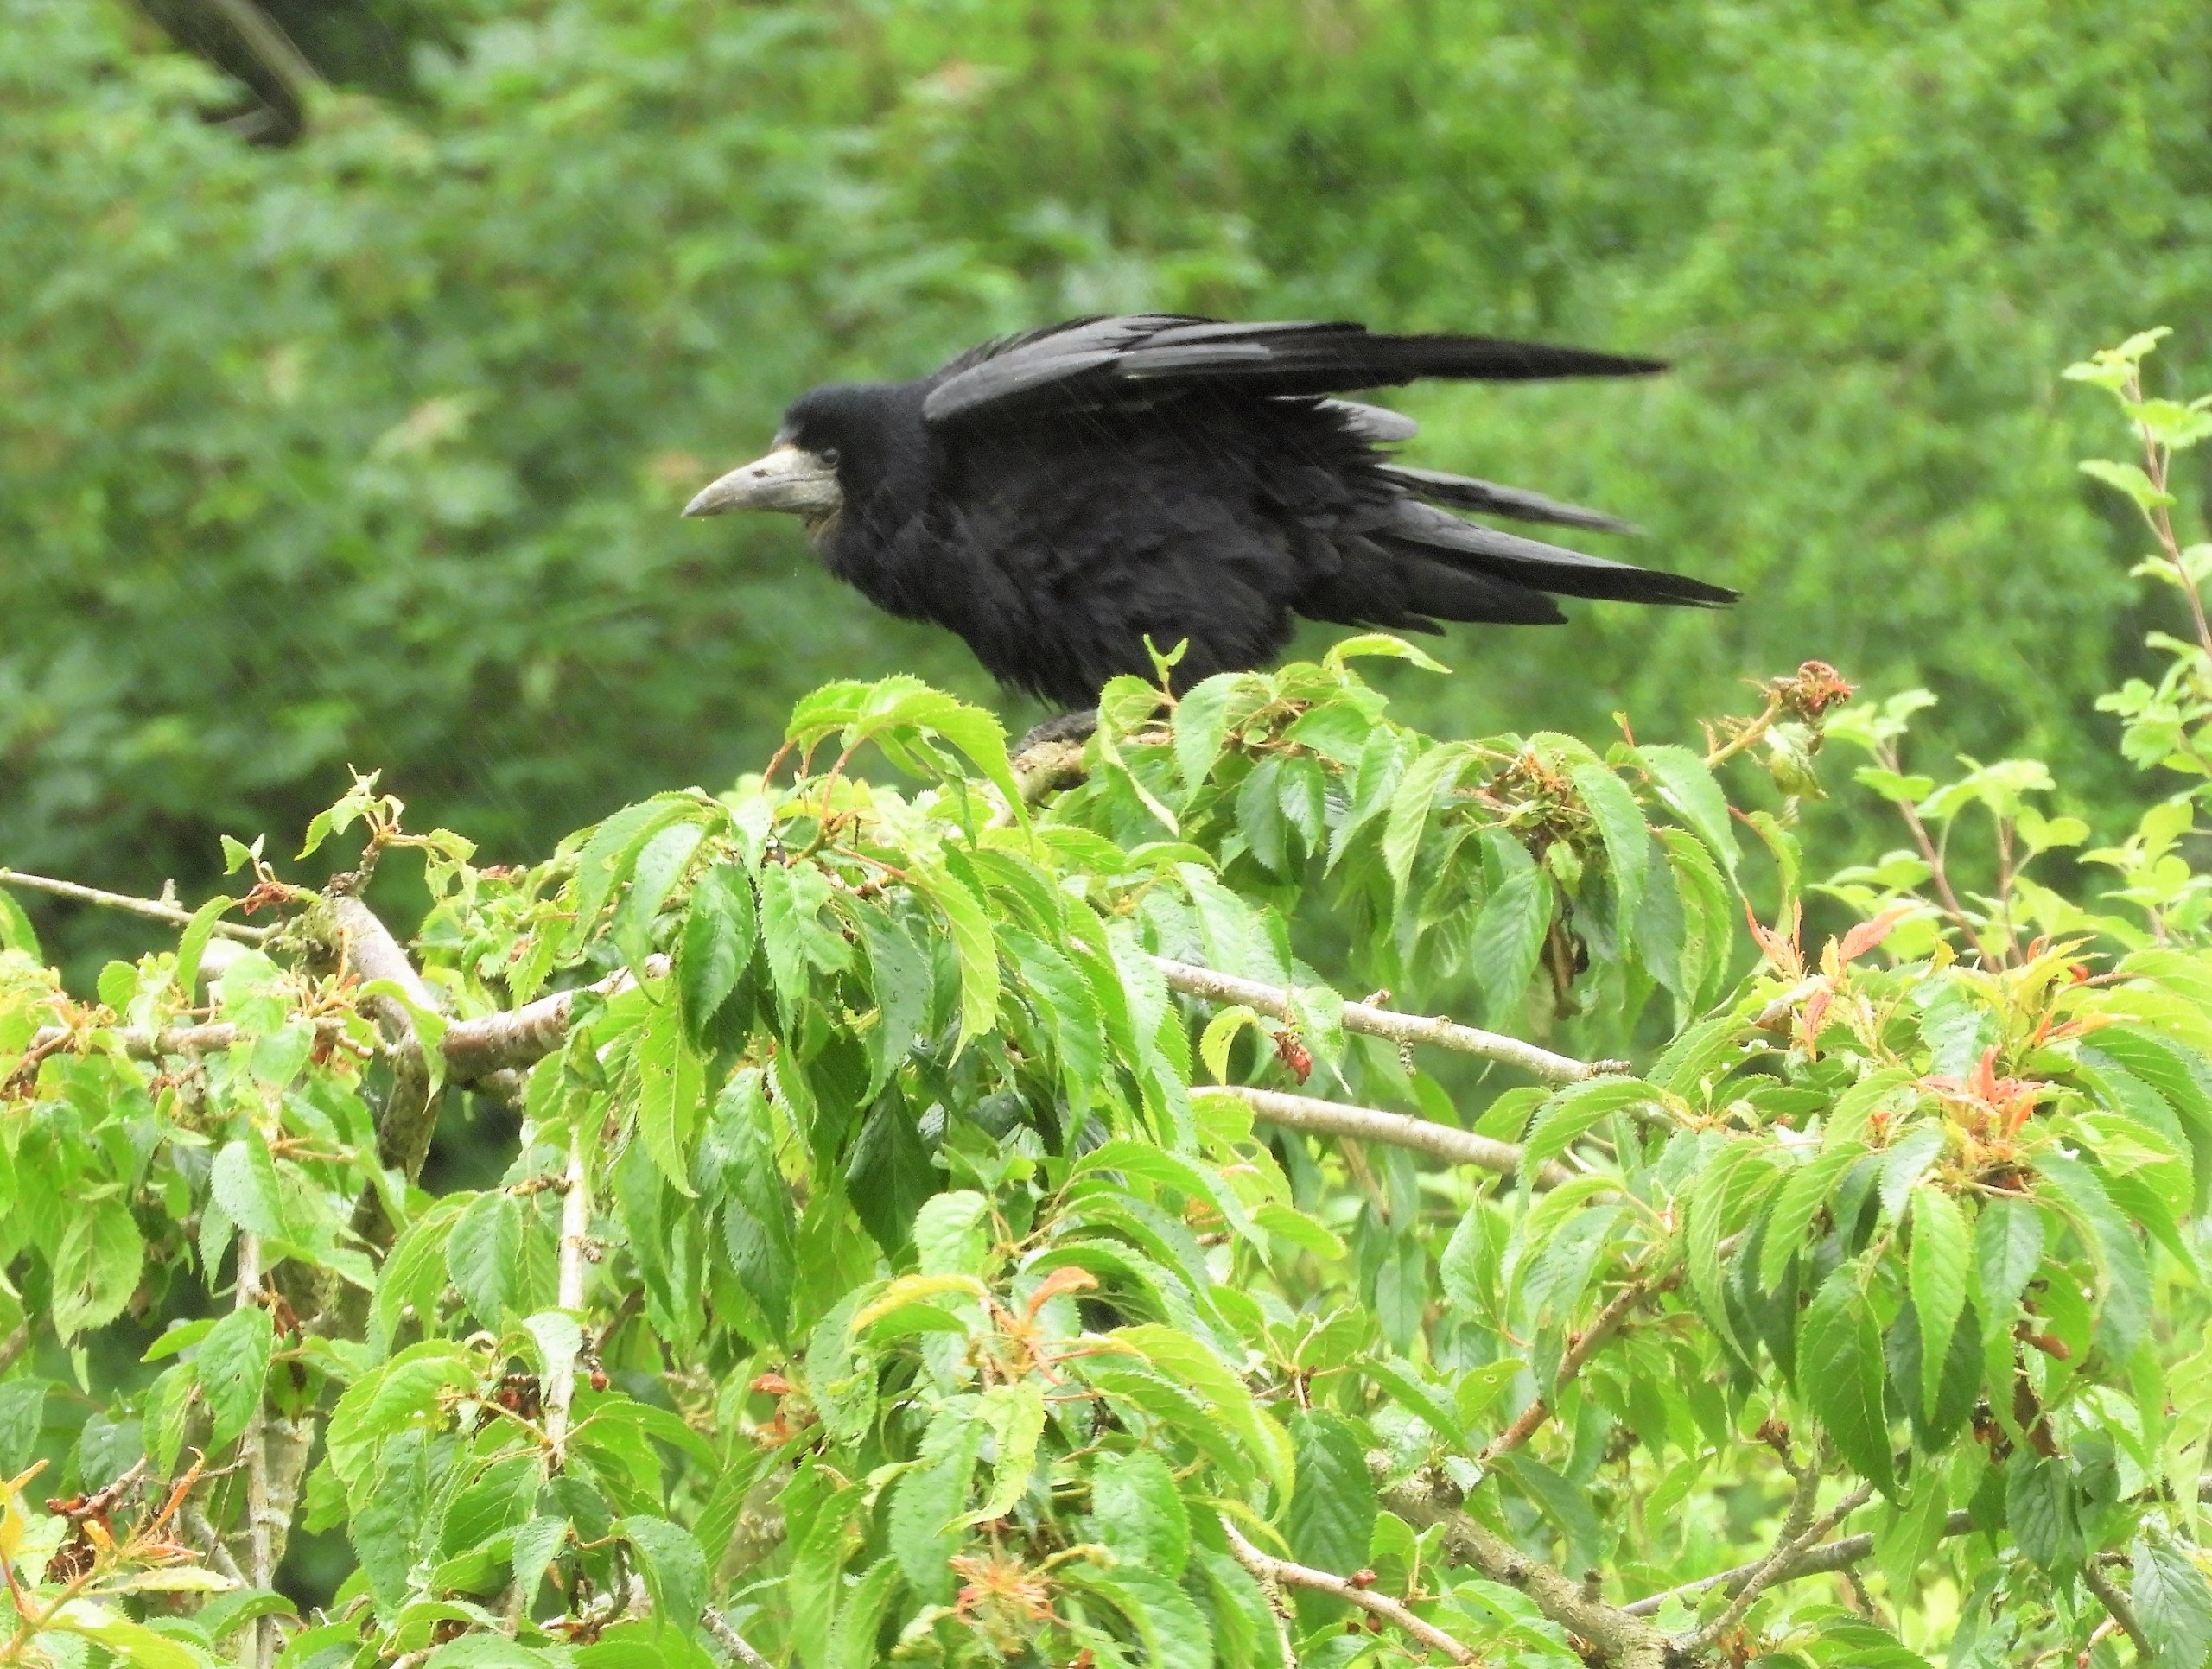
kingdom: Animalia
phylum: Chordata
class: Aves
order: Passeriformes
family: Corvidae
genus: Corvus
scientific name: Corvus frugilegus
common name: Råge
